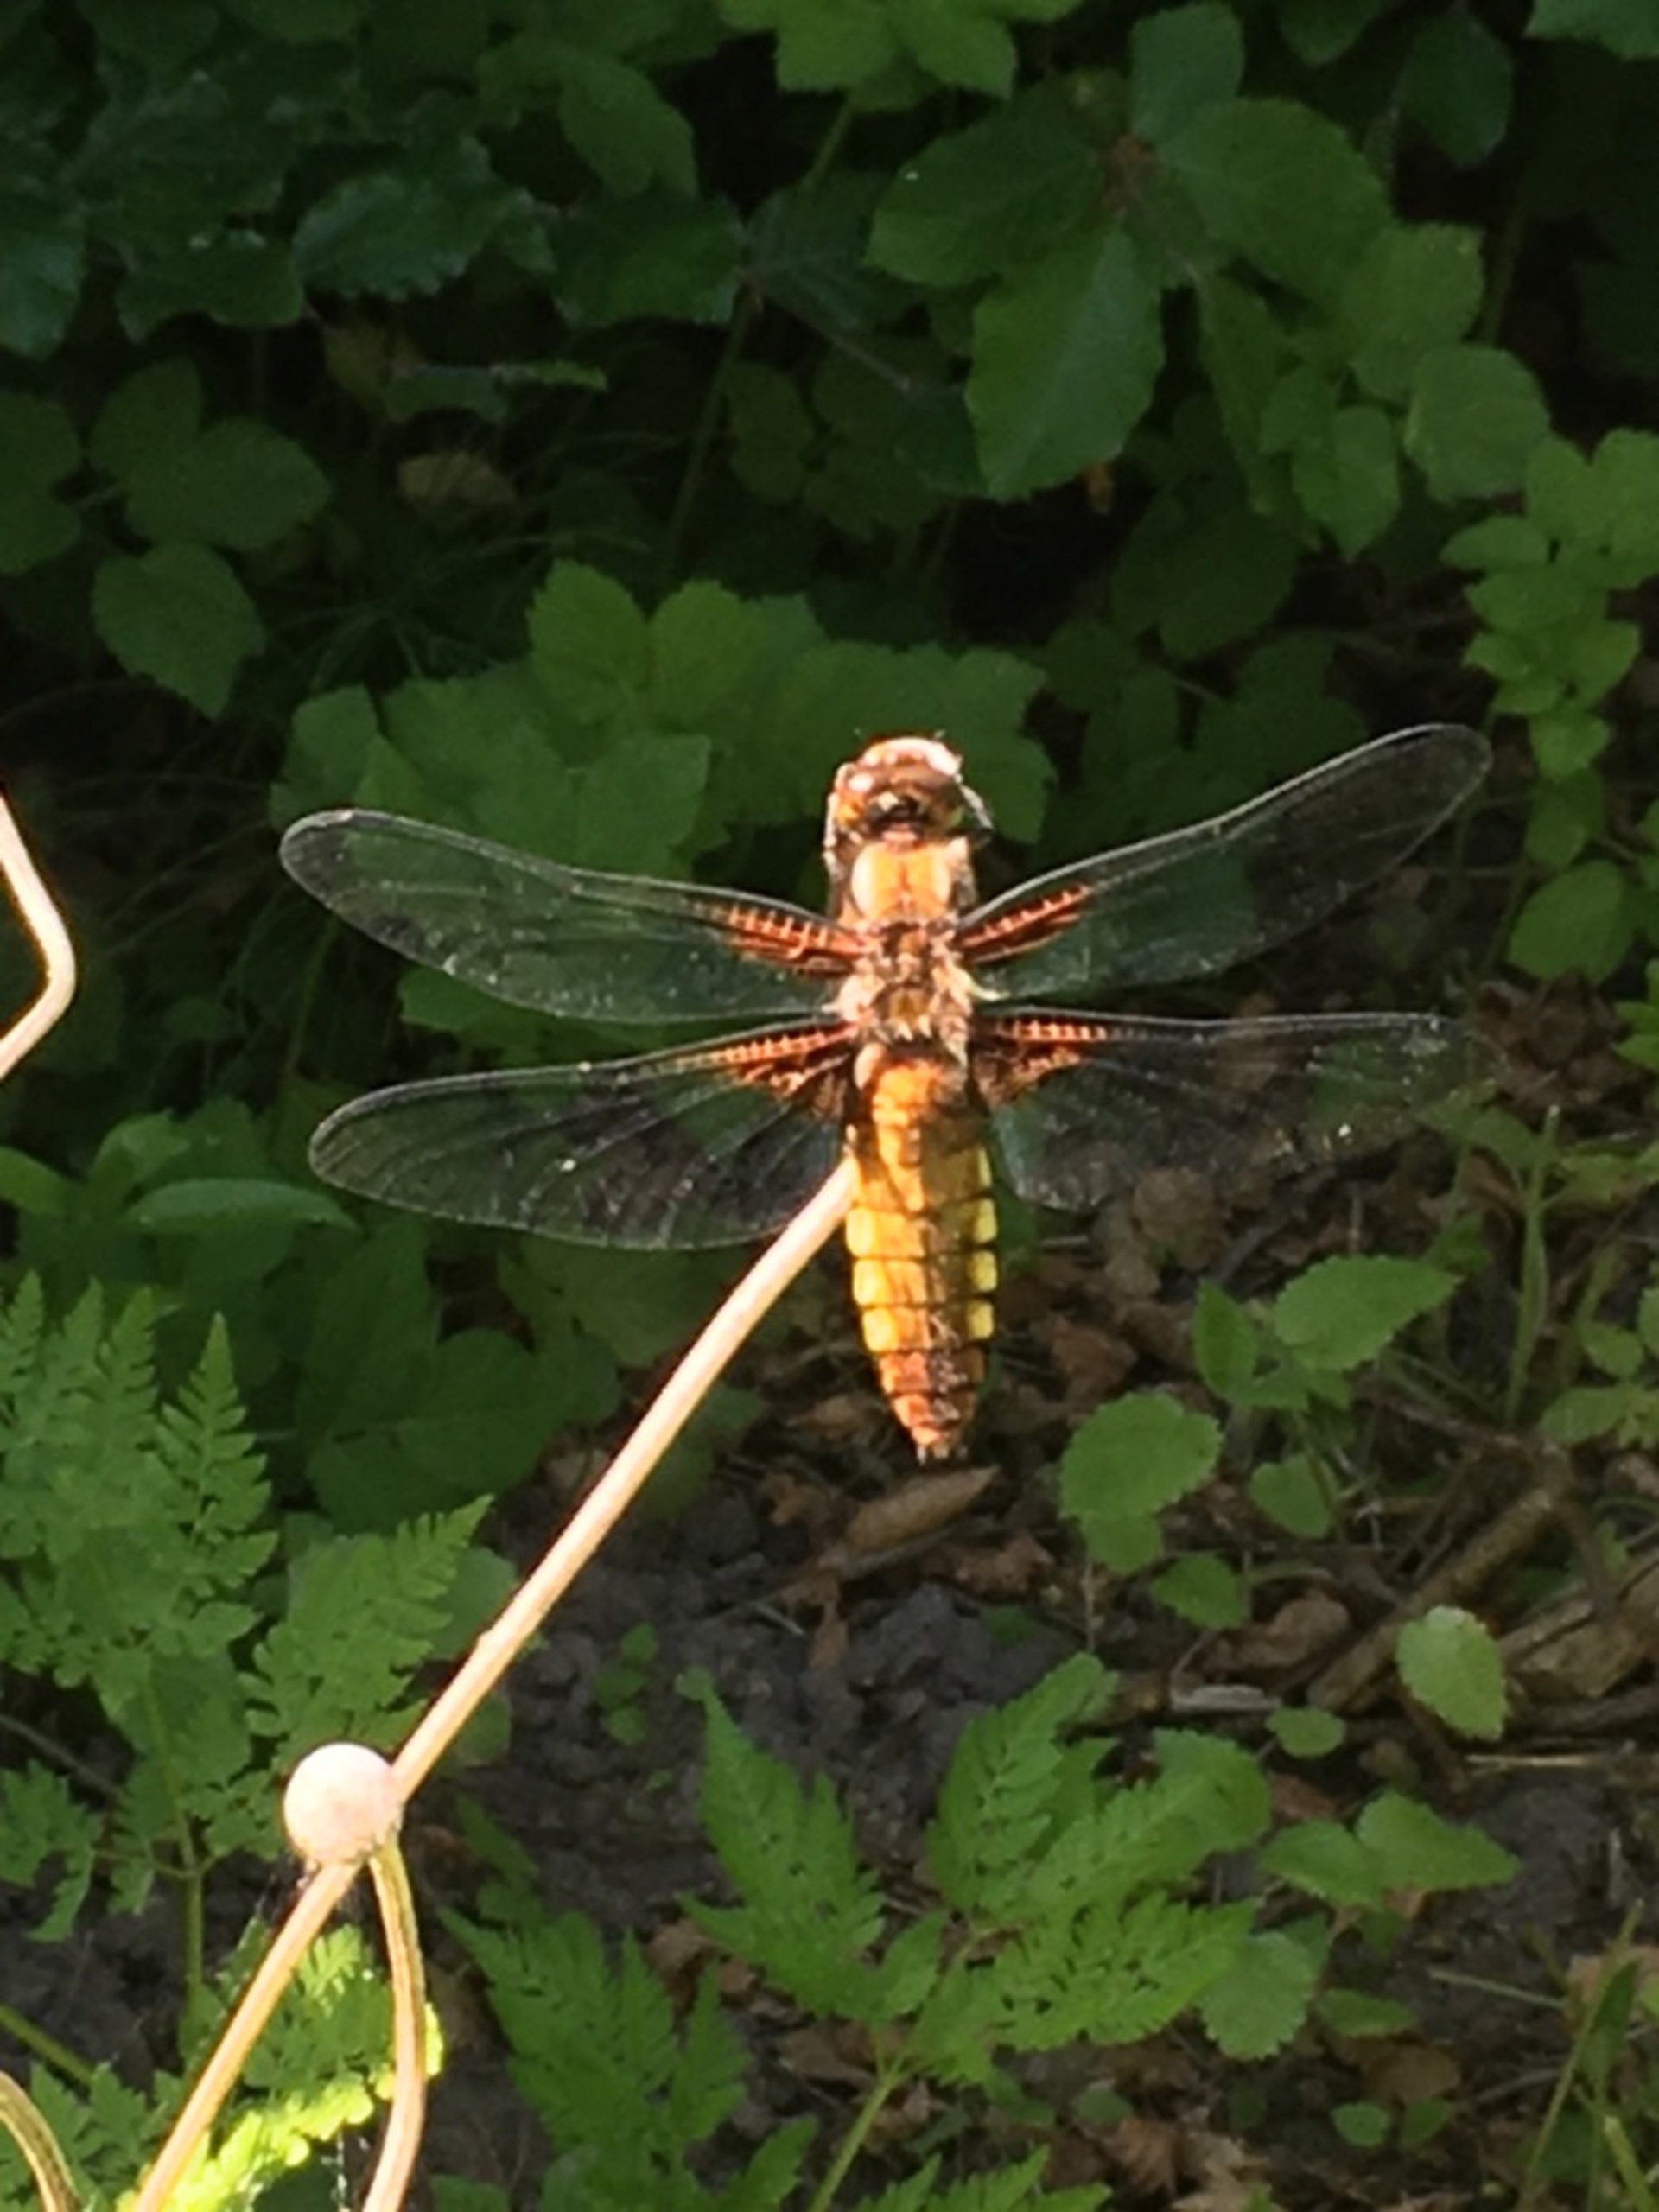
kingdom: Animalia
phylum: Arthropoda
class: Insecta
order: Odonata
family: Libellulidae
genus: Libellula
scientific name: Libellula depressa
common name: Blå libel
